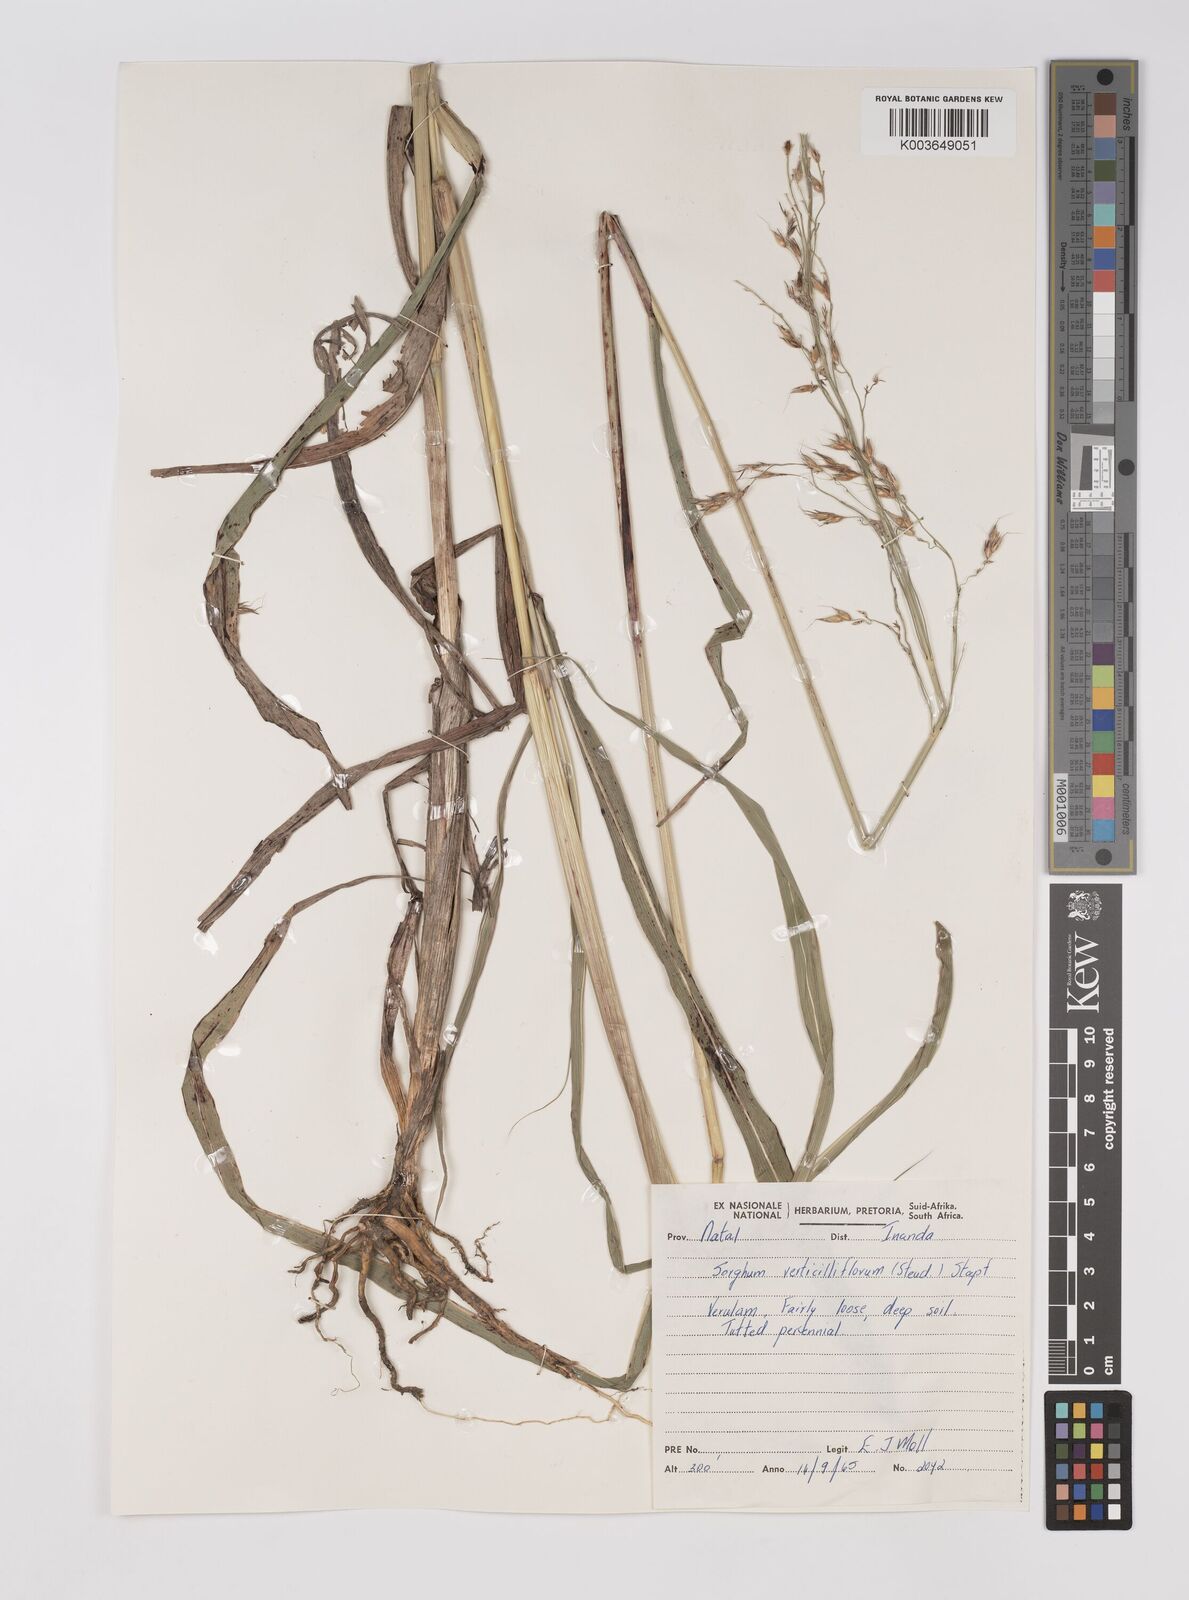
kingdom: Plantae
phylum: Tracheophyta
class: Liliopsida
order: Poales
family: Poaceae
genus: Sorghum
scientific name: Sorghum arundinaceum
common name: Sorghum
